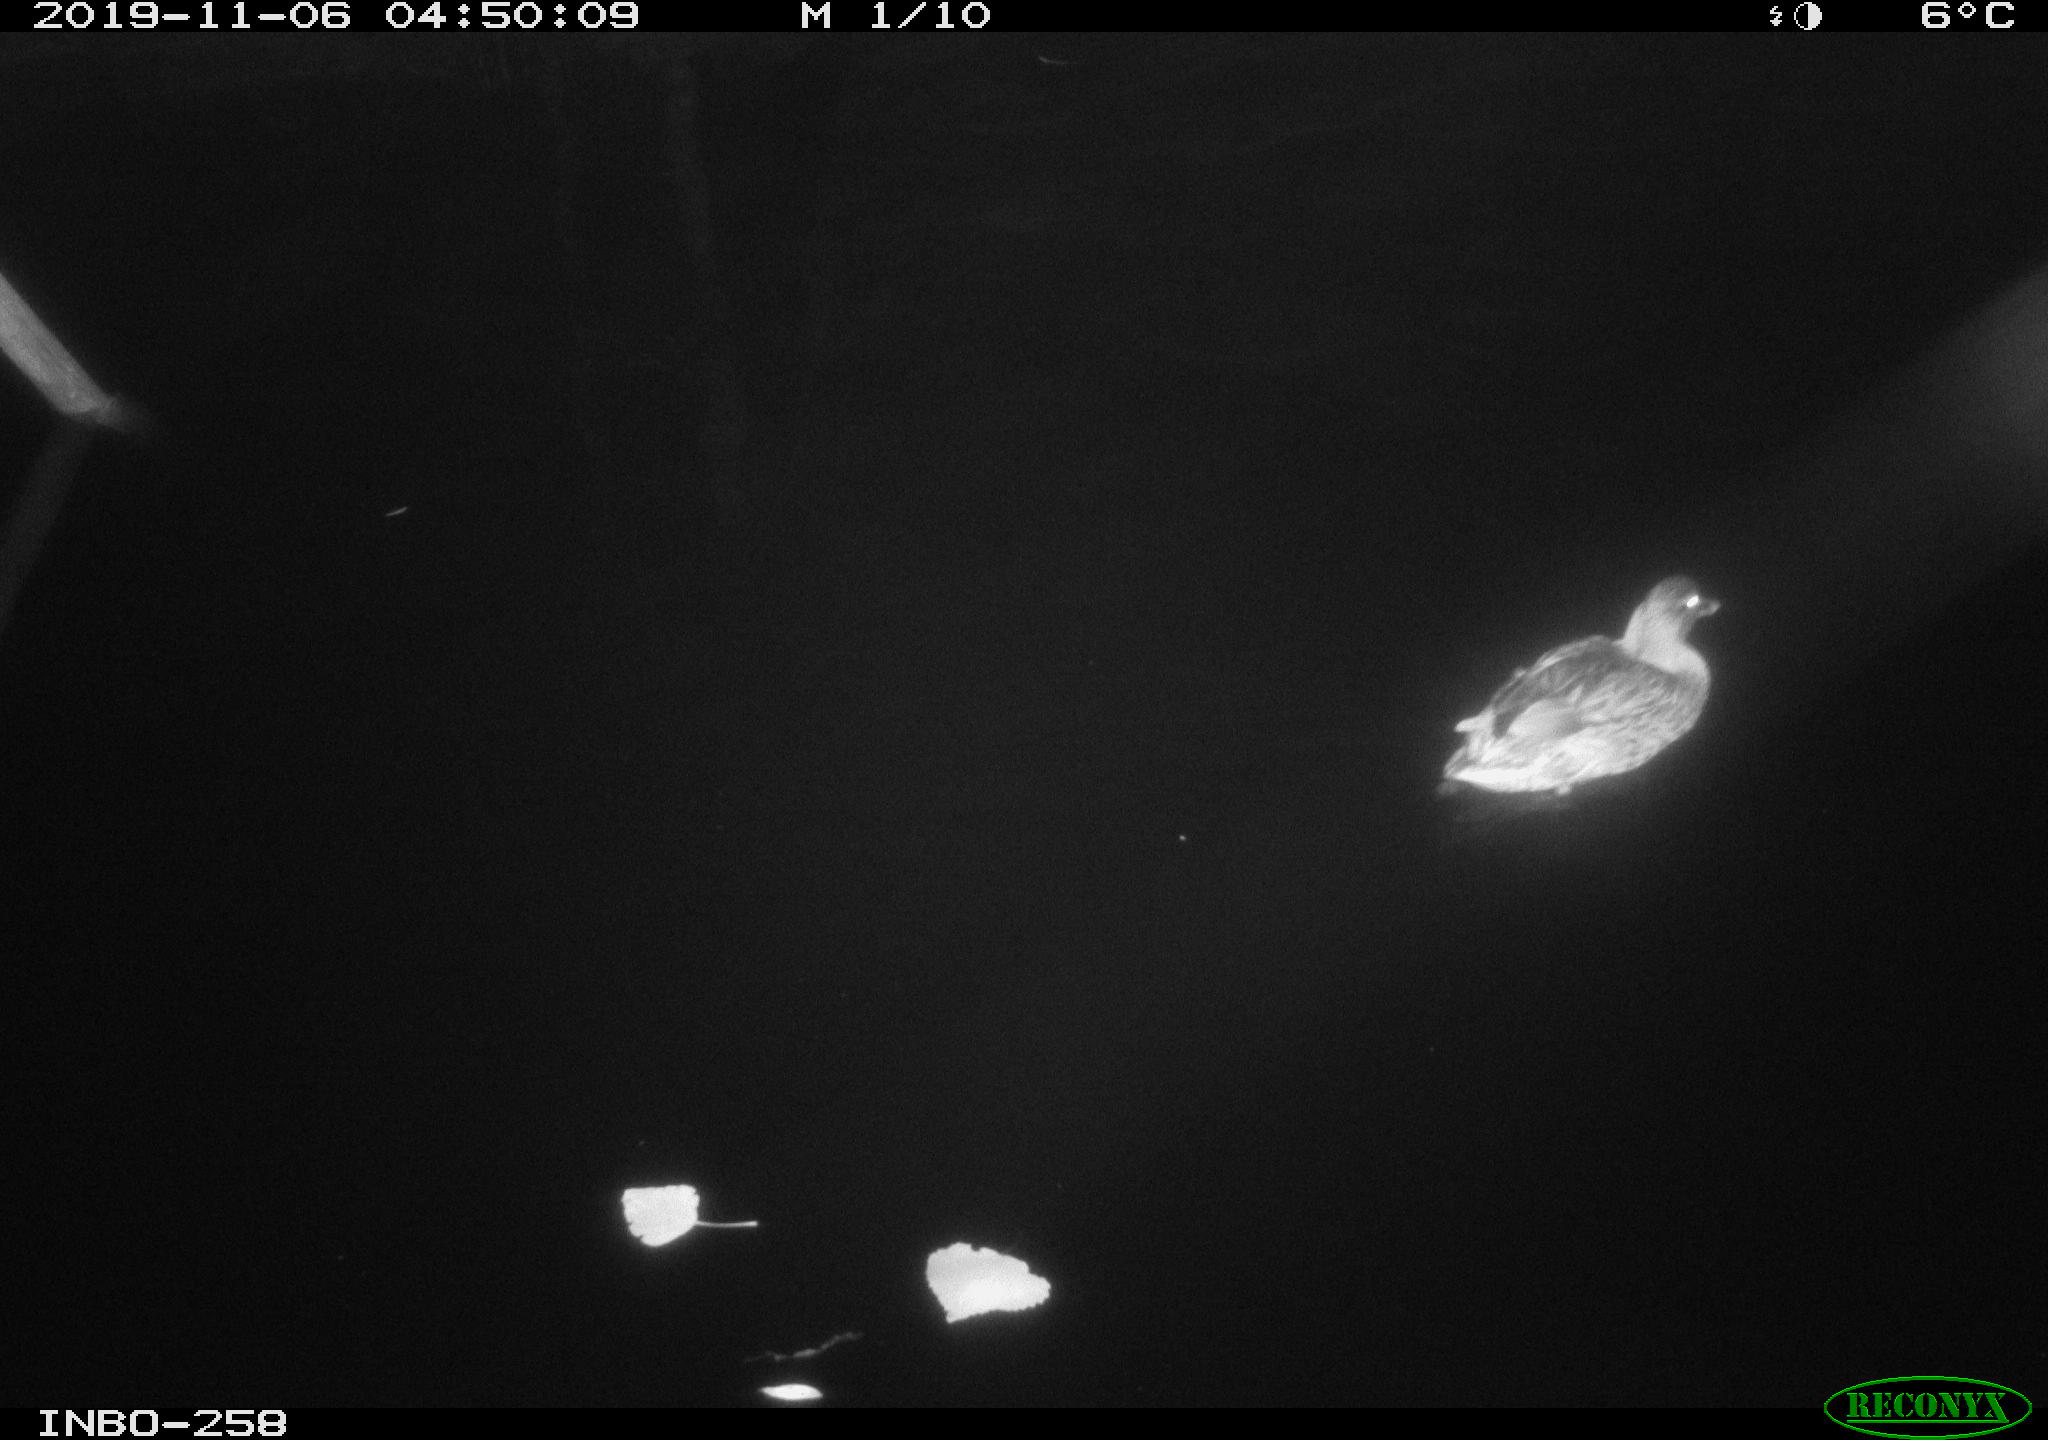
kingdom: Animalia
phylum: Chordata
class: Aves
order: Anseriformes
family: Anatidae
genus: Anas
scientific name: Anas platyrhynchos
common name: Mallard
